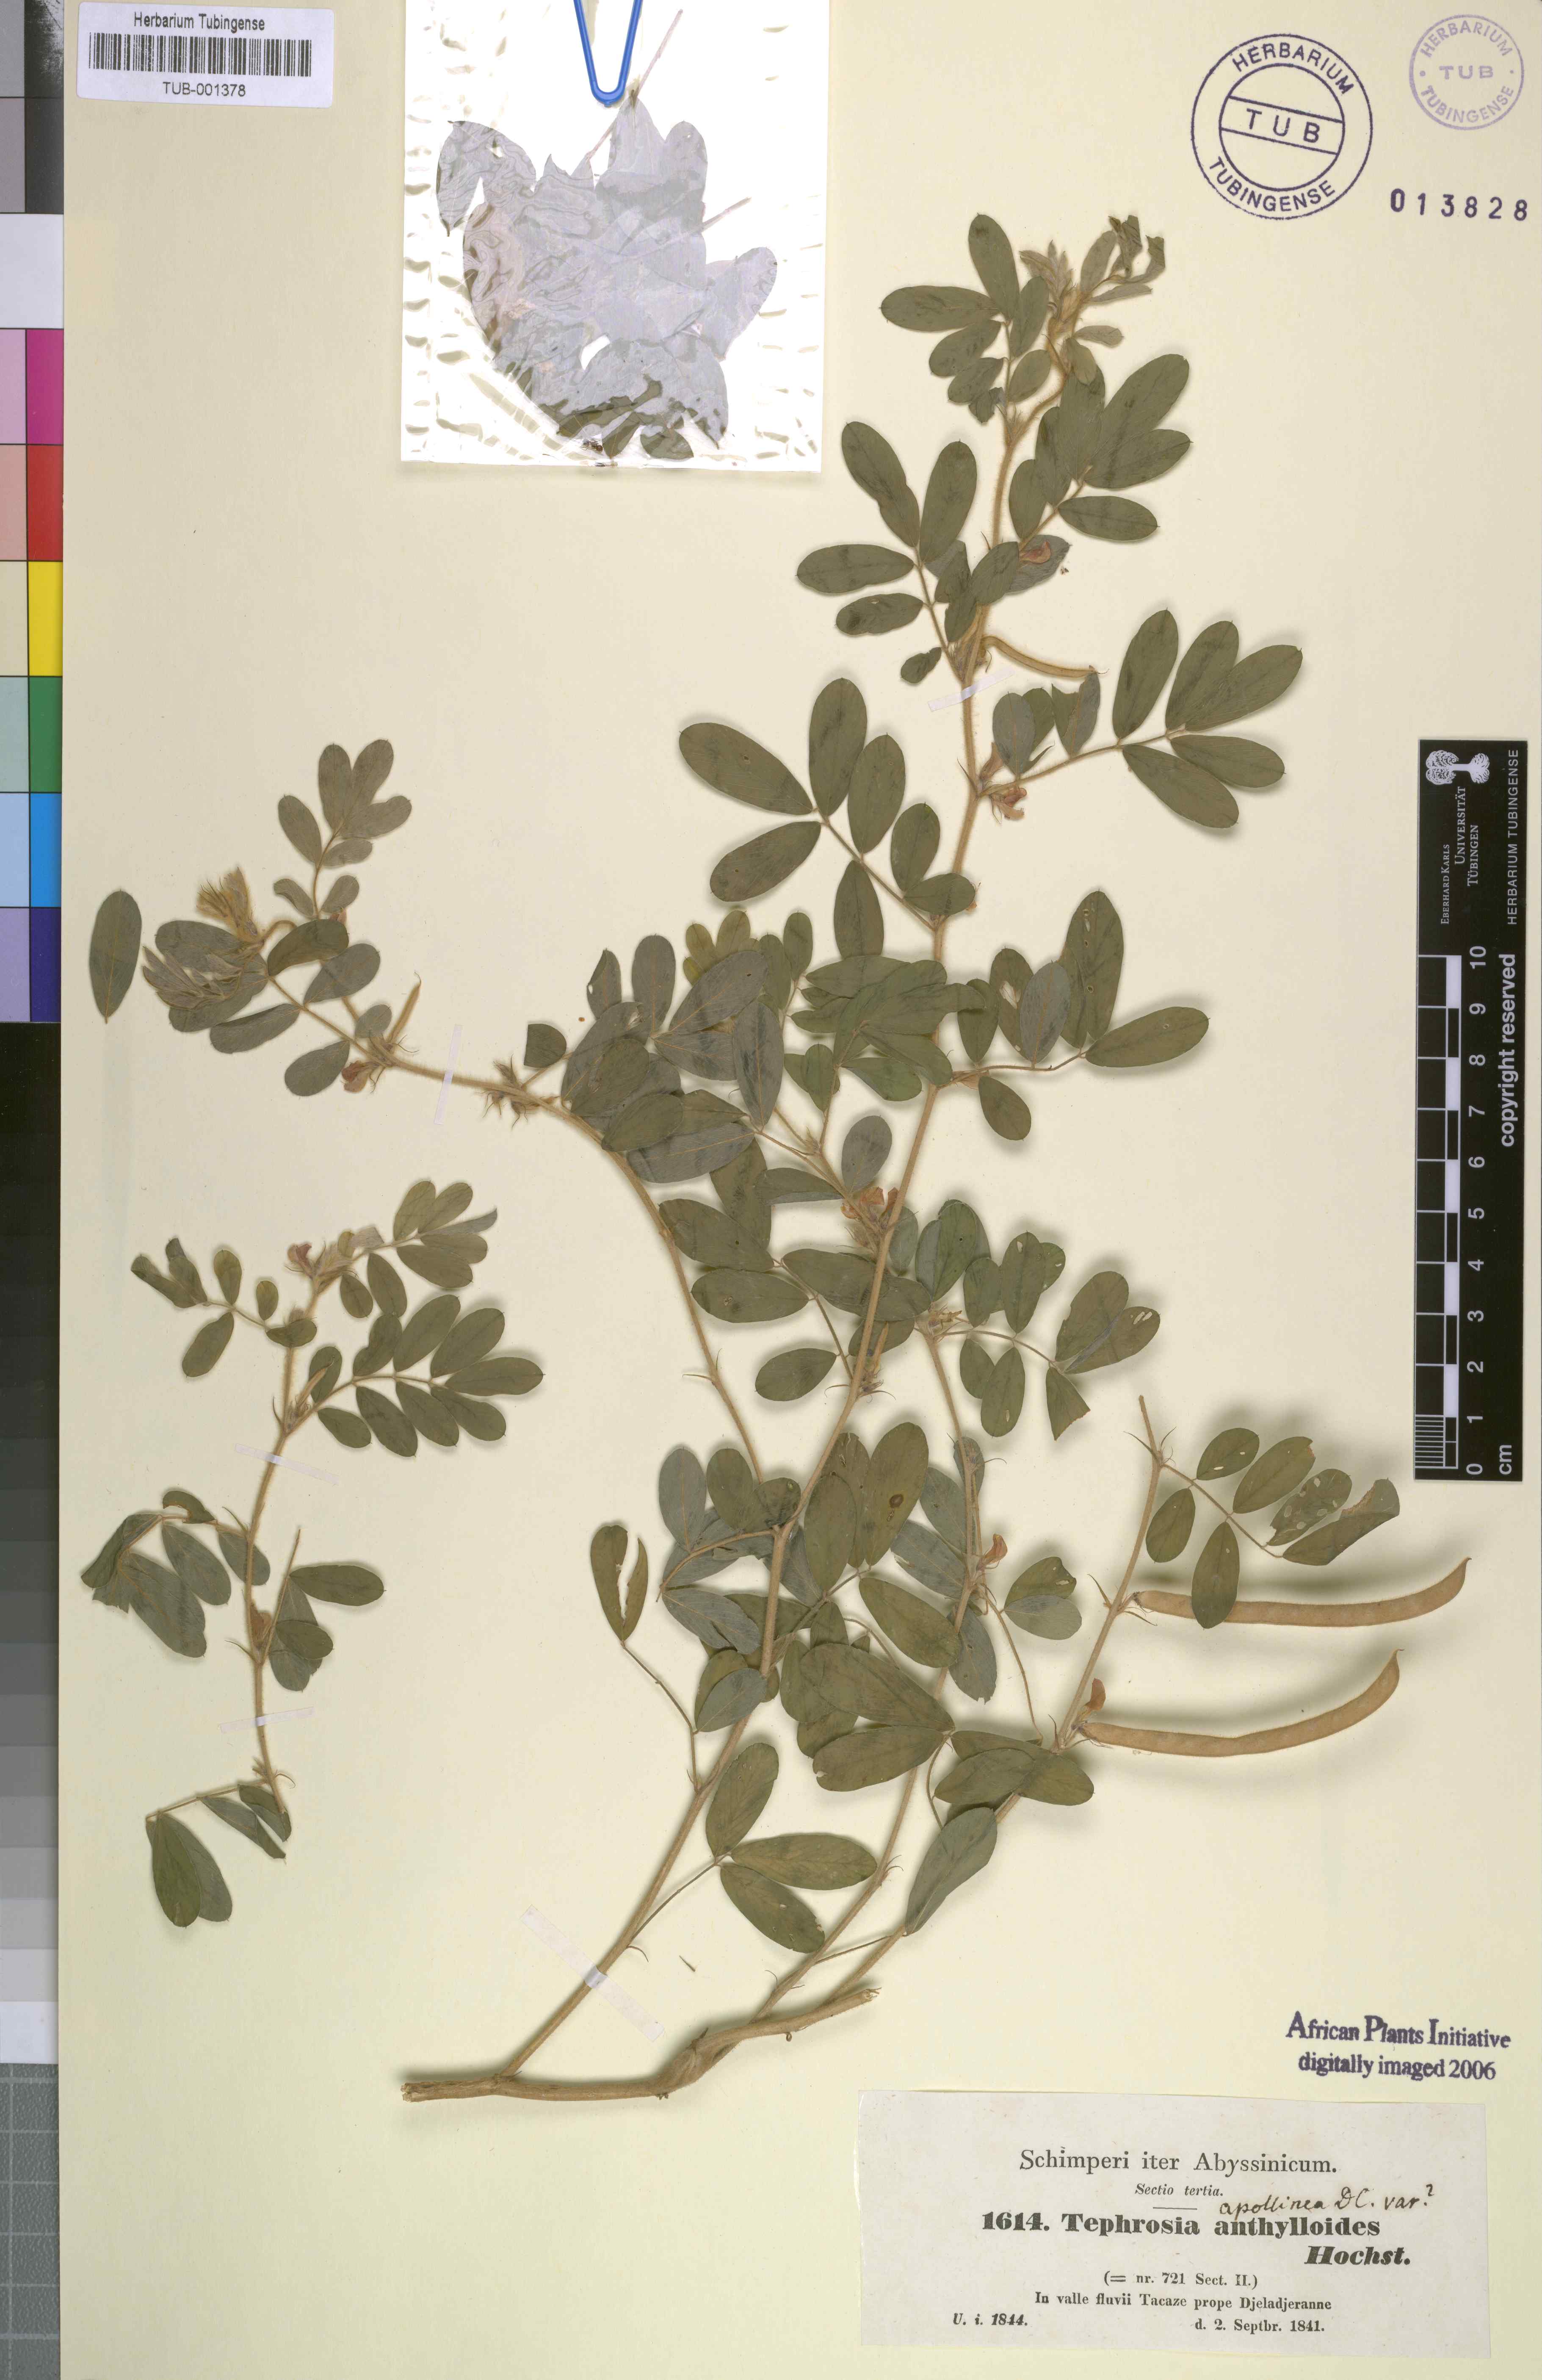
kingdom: Plantae
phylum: Tracheophyta
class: Magnoliopsida
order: Fabales
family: Fabaceae
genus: Tephrosia
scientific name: Tephrosia uniflora
